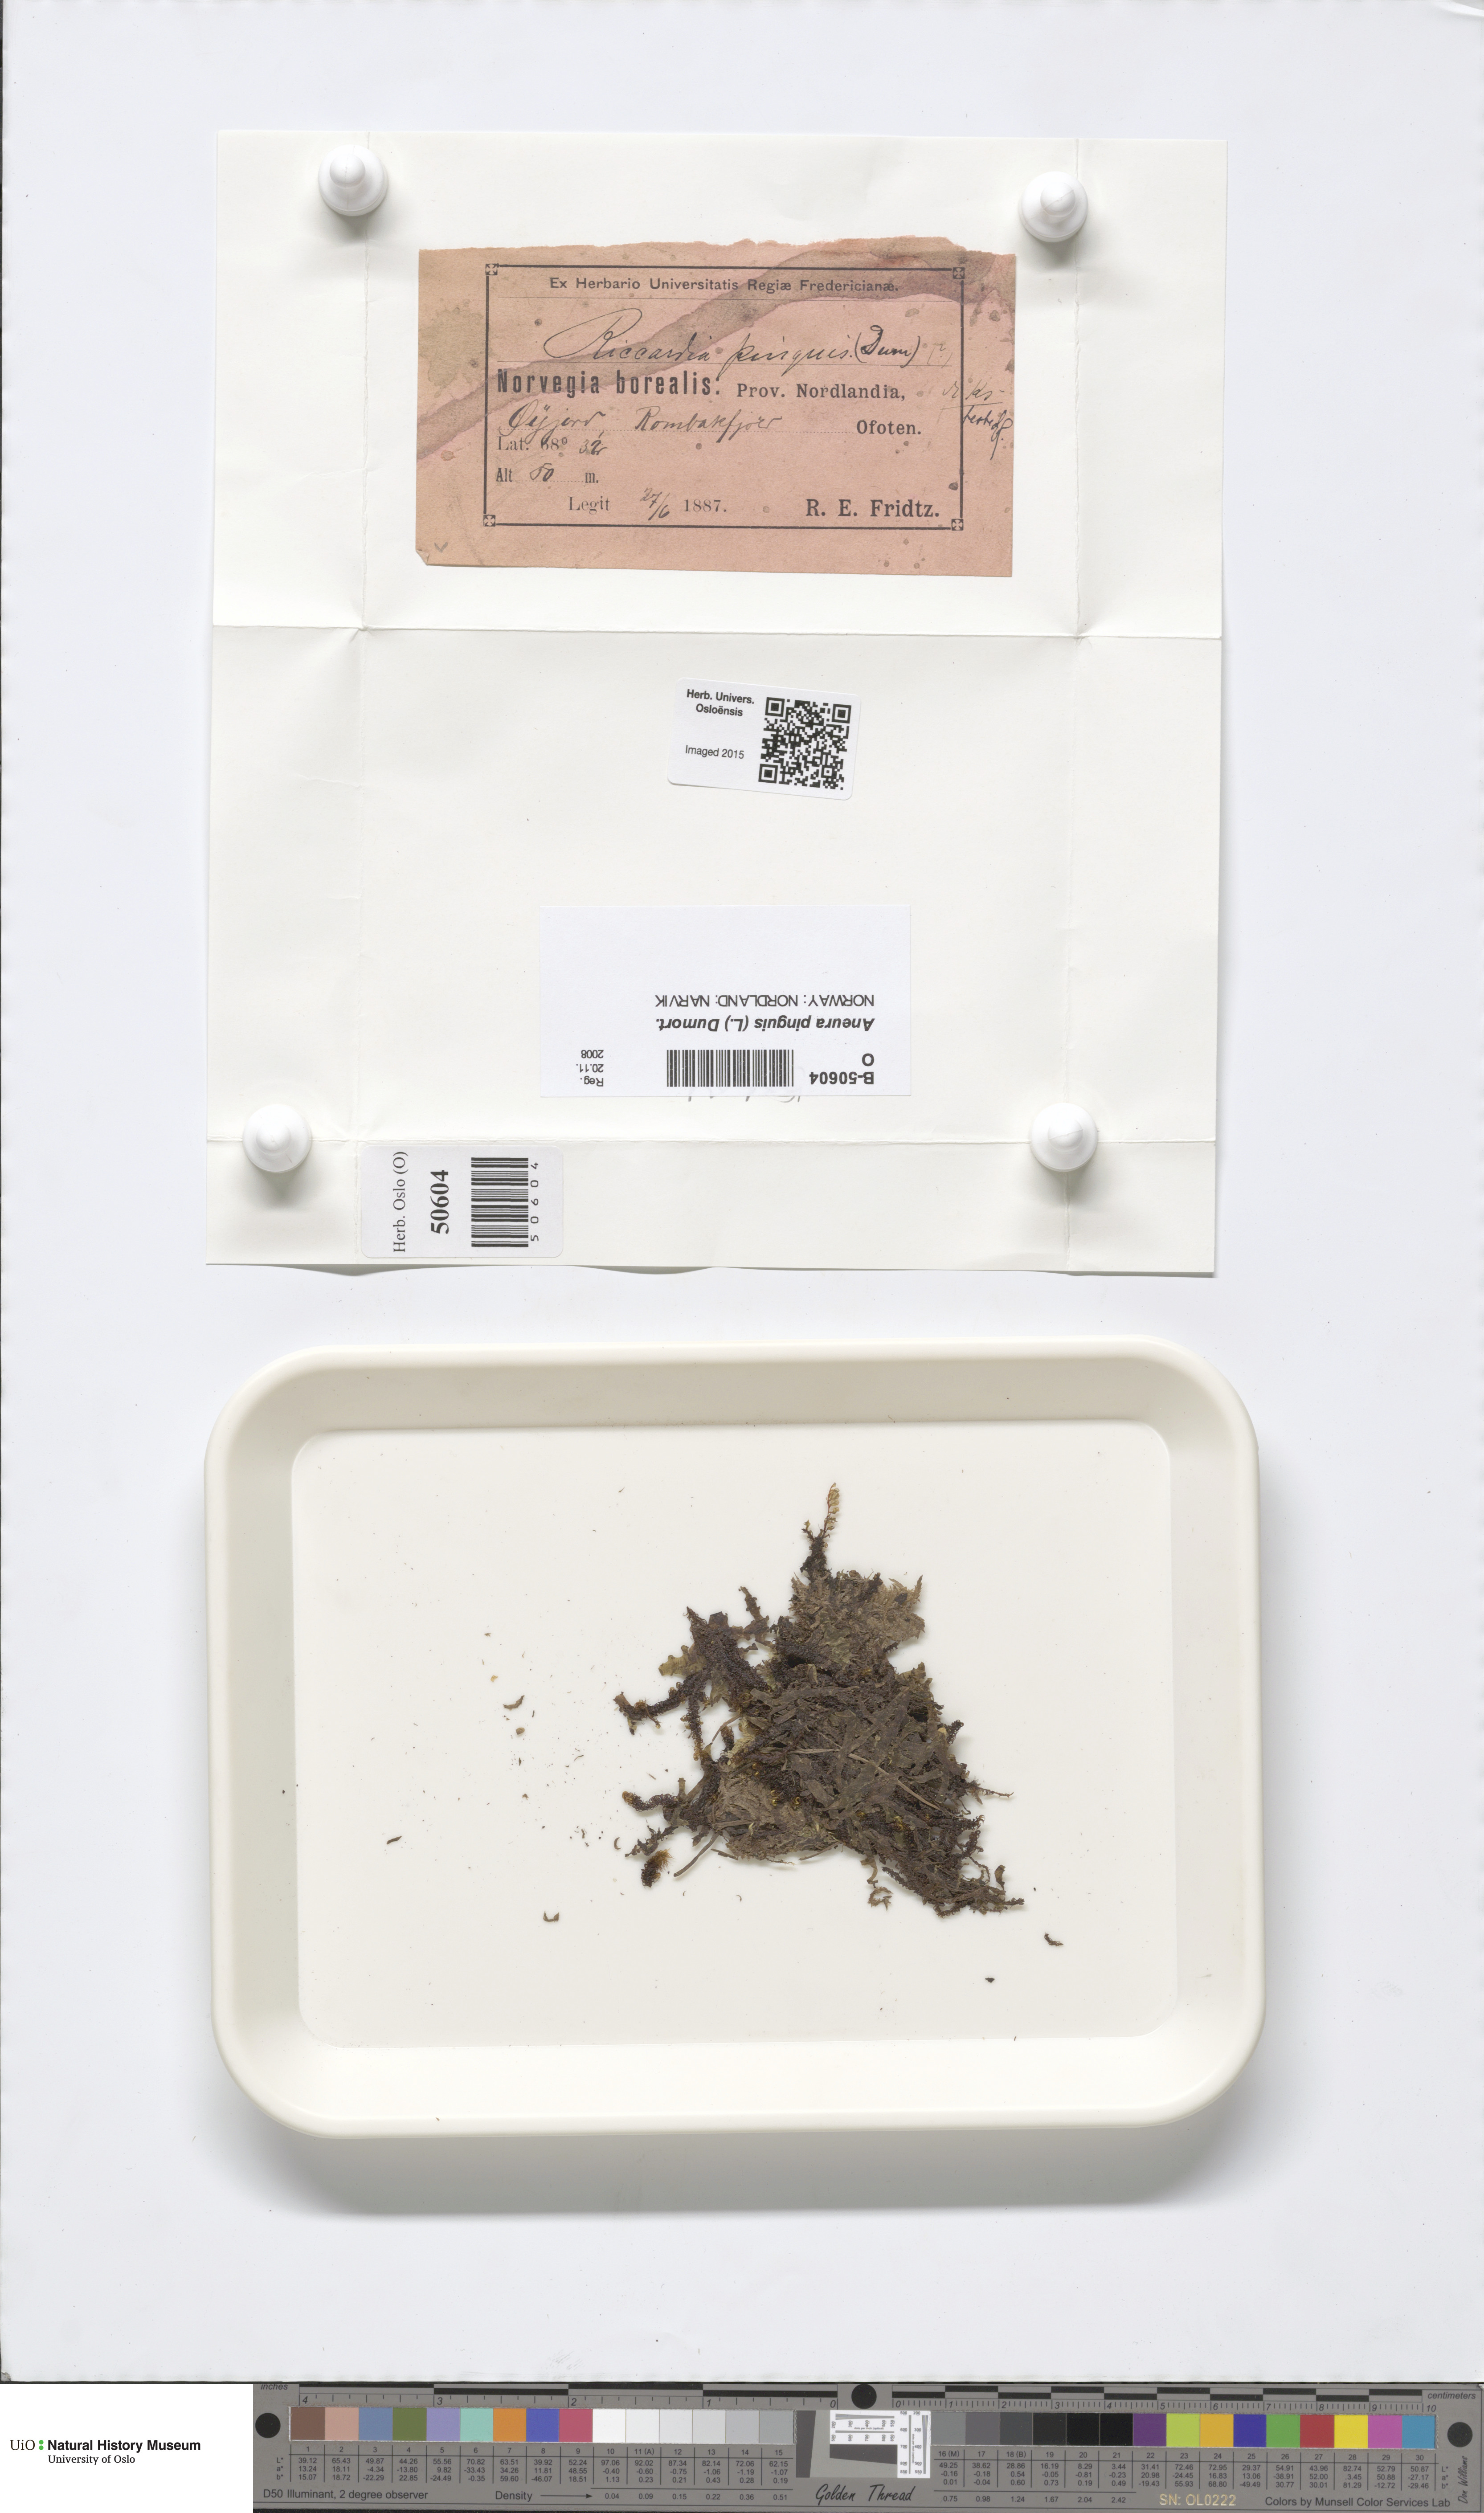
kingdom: Plantae
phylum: Marchantiophyta
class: Jungermanniopsida
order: Metzgeriales
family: Aneuraceae
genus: Aneura
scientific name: Aneura pinguis
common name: Common greasewort
